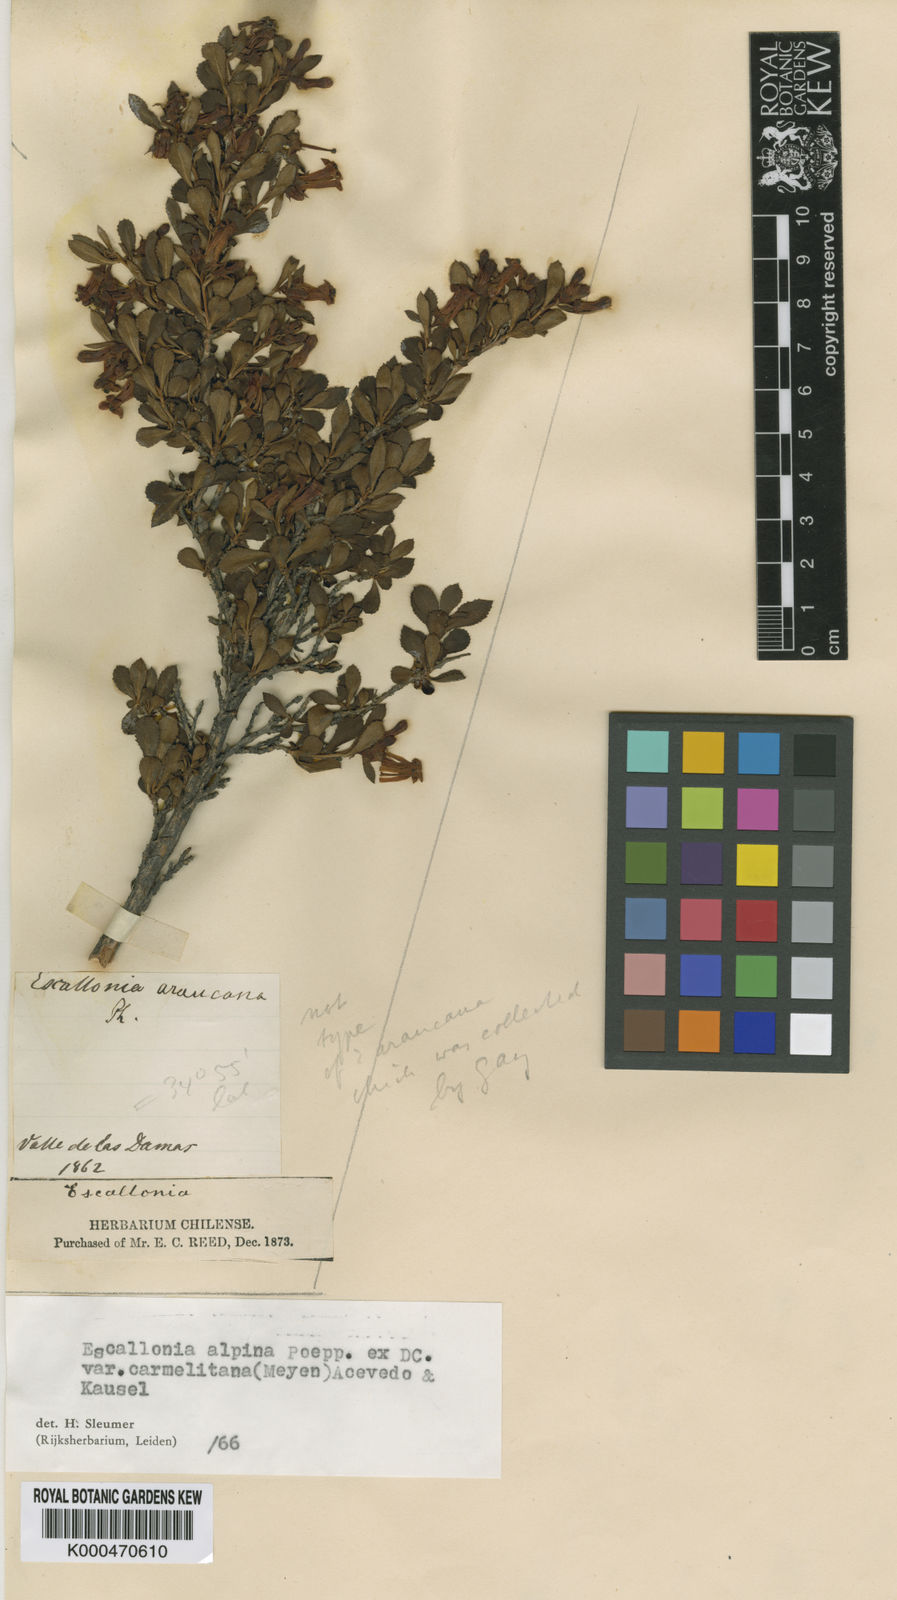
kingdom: Plantae
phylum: Tracheophyta
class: Magnoliopsida
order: Escalloniales
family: Escalloniaceae
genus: Escallonia
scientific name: Escallonia alpina
